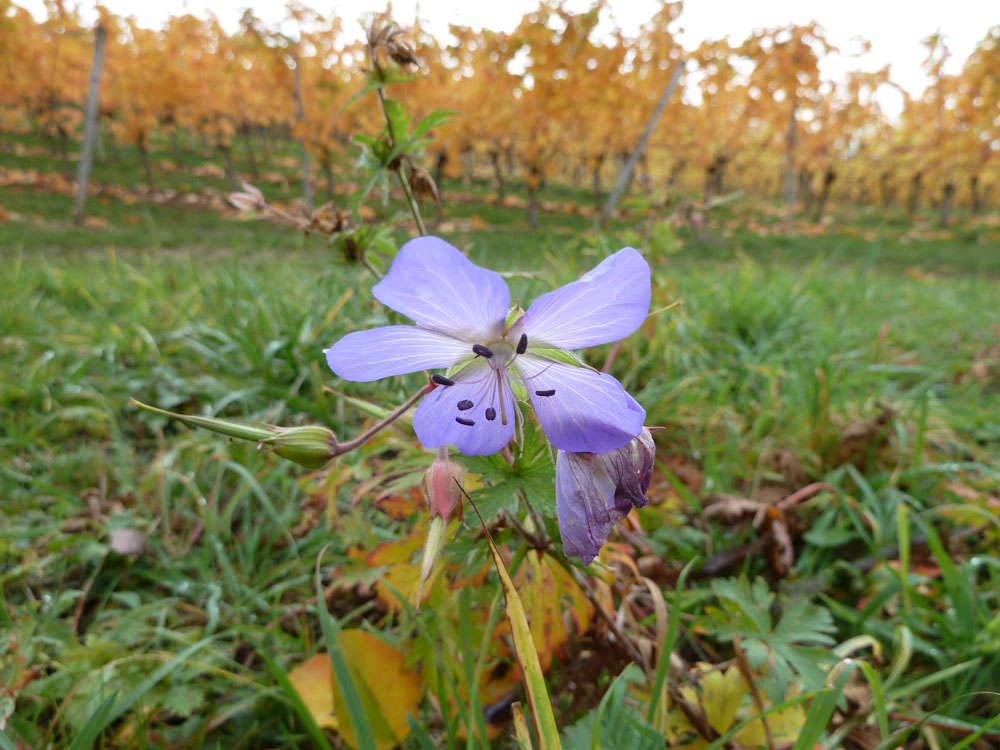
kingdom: Plantae
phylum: Tracheophyta
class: Magnoliopsida
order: Geraniales
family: Geraniaceae
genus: Geranium
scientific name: Geranium pratense
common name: Meadow crane's-bill
